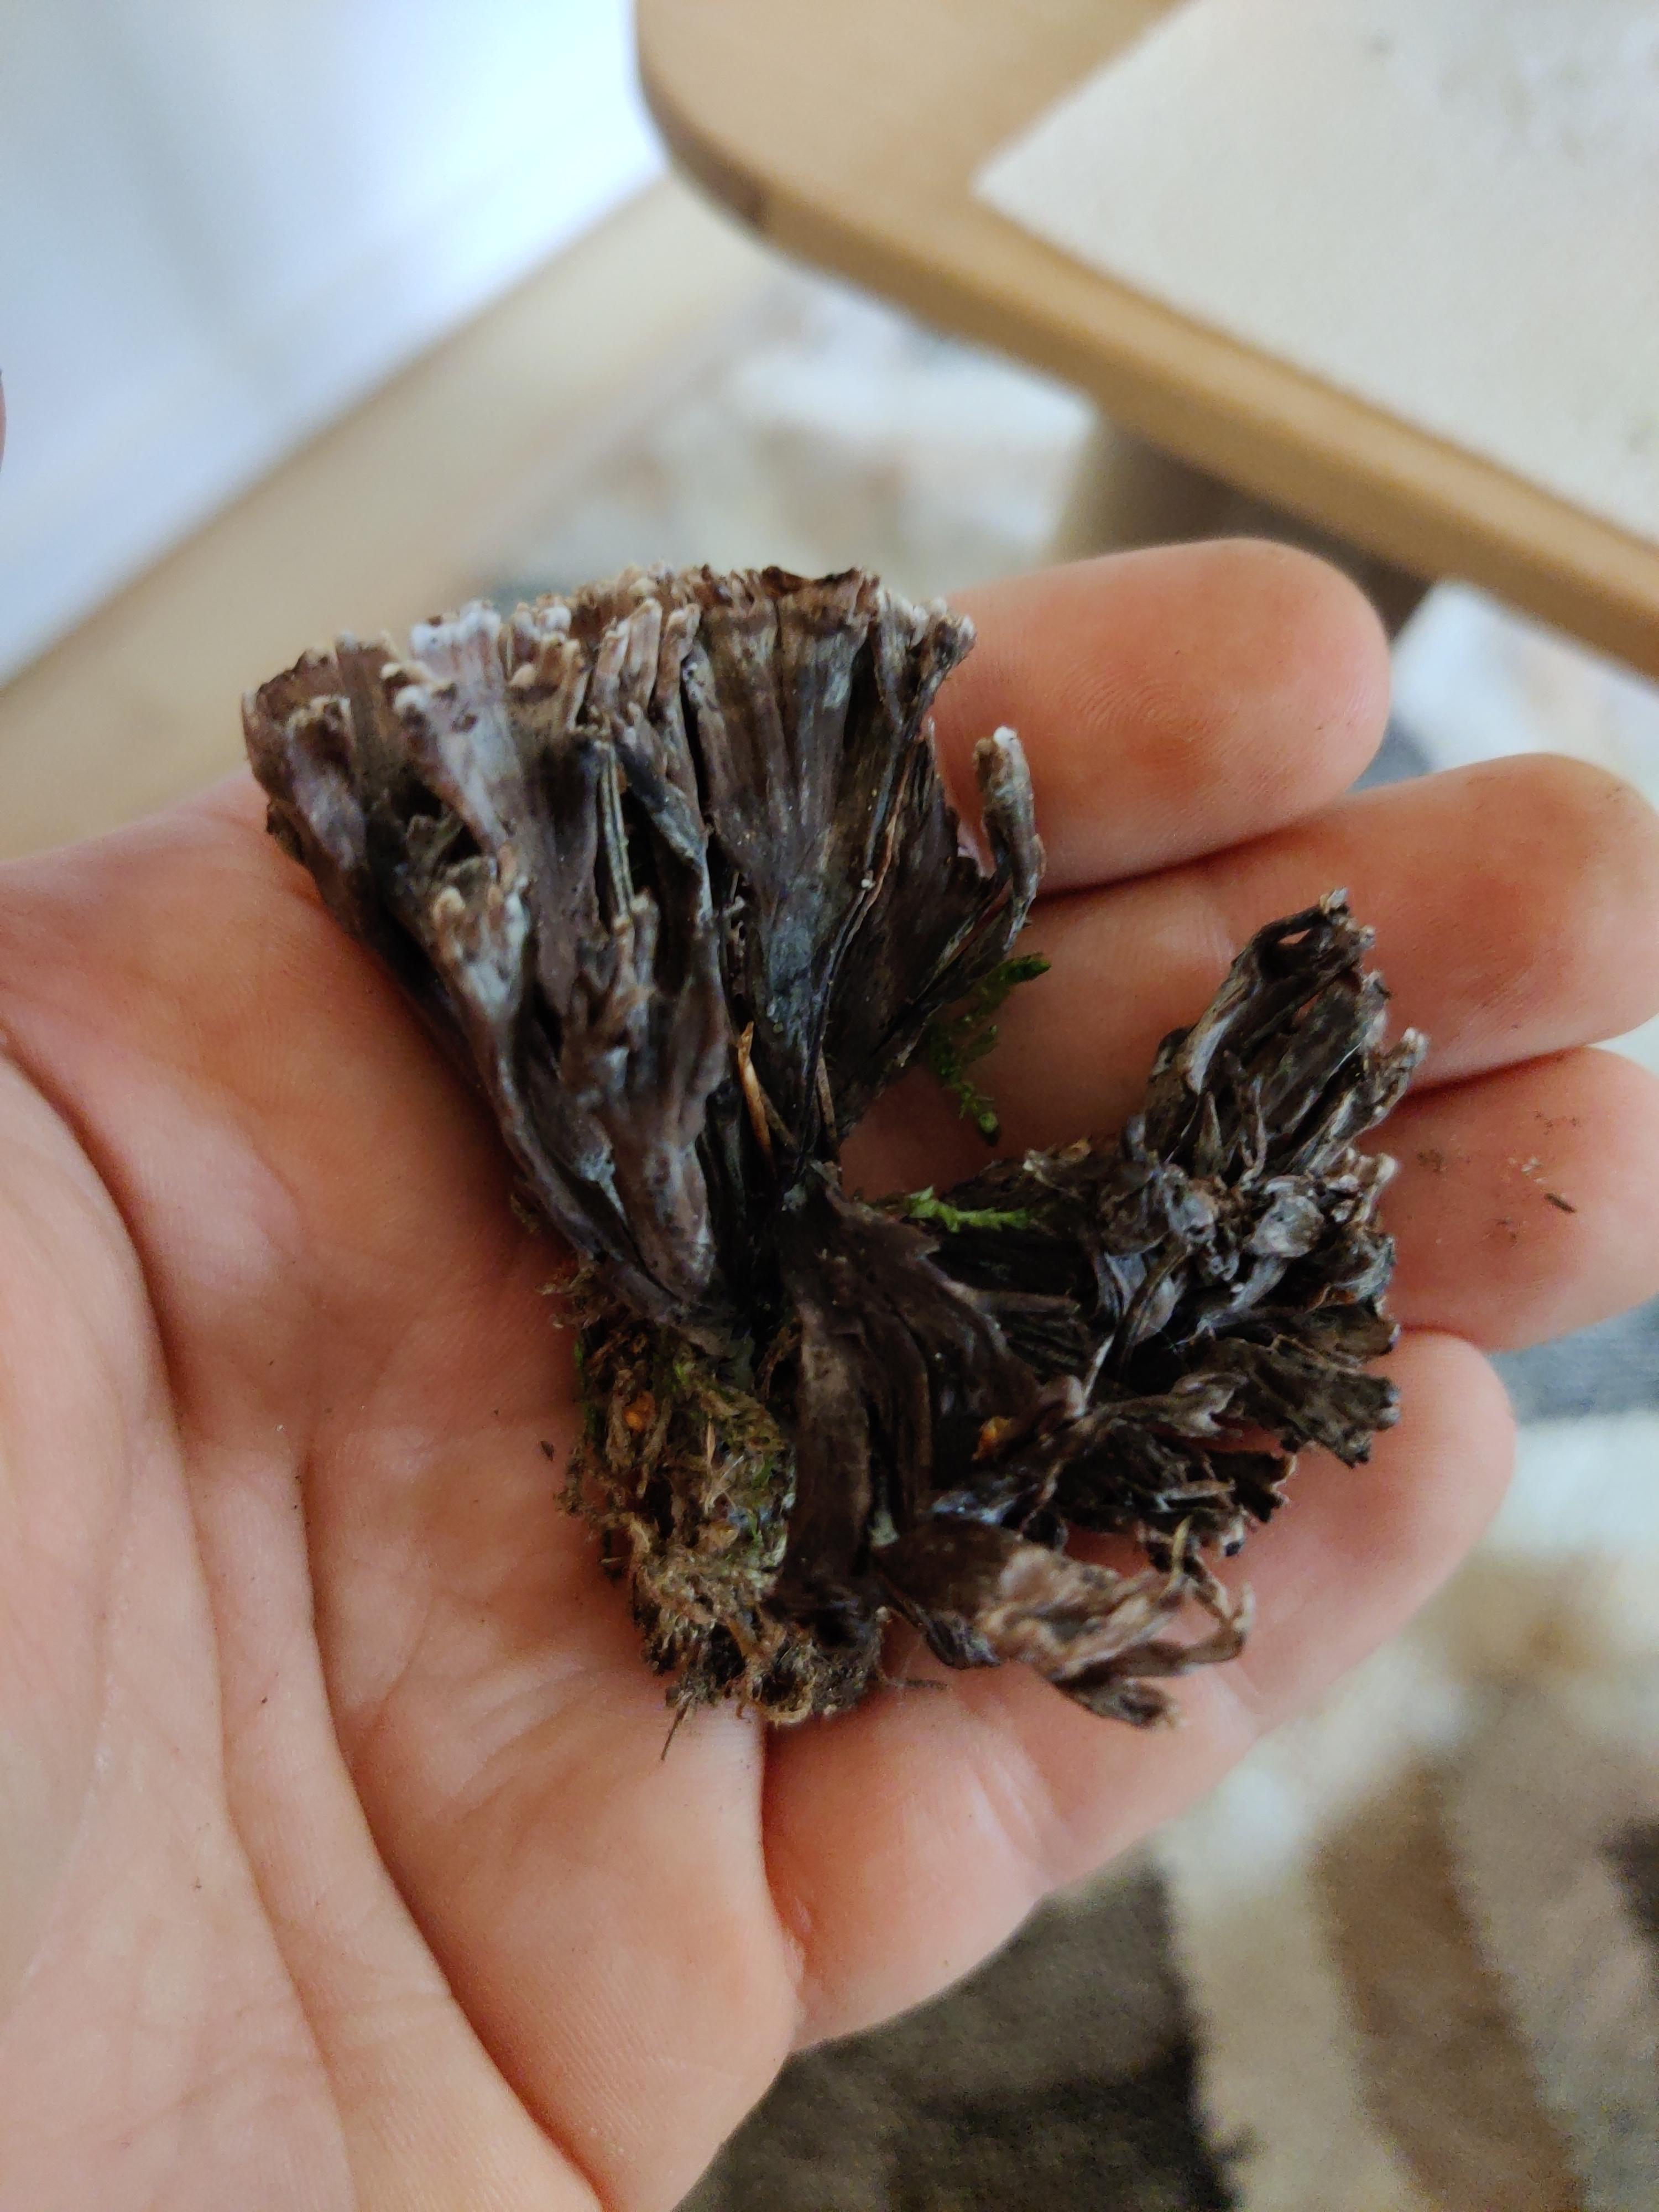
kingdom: Fungi
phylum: Basidiomycota
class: Agaricomycetes
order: Thelephorales
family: Thelephoraceae
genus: Thelephora
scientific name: Thelephora palmata
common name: grenet frynsesvamp
